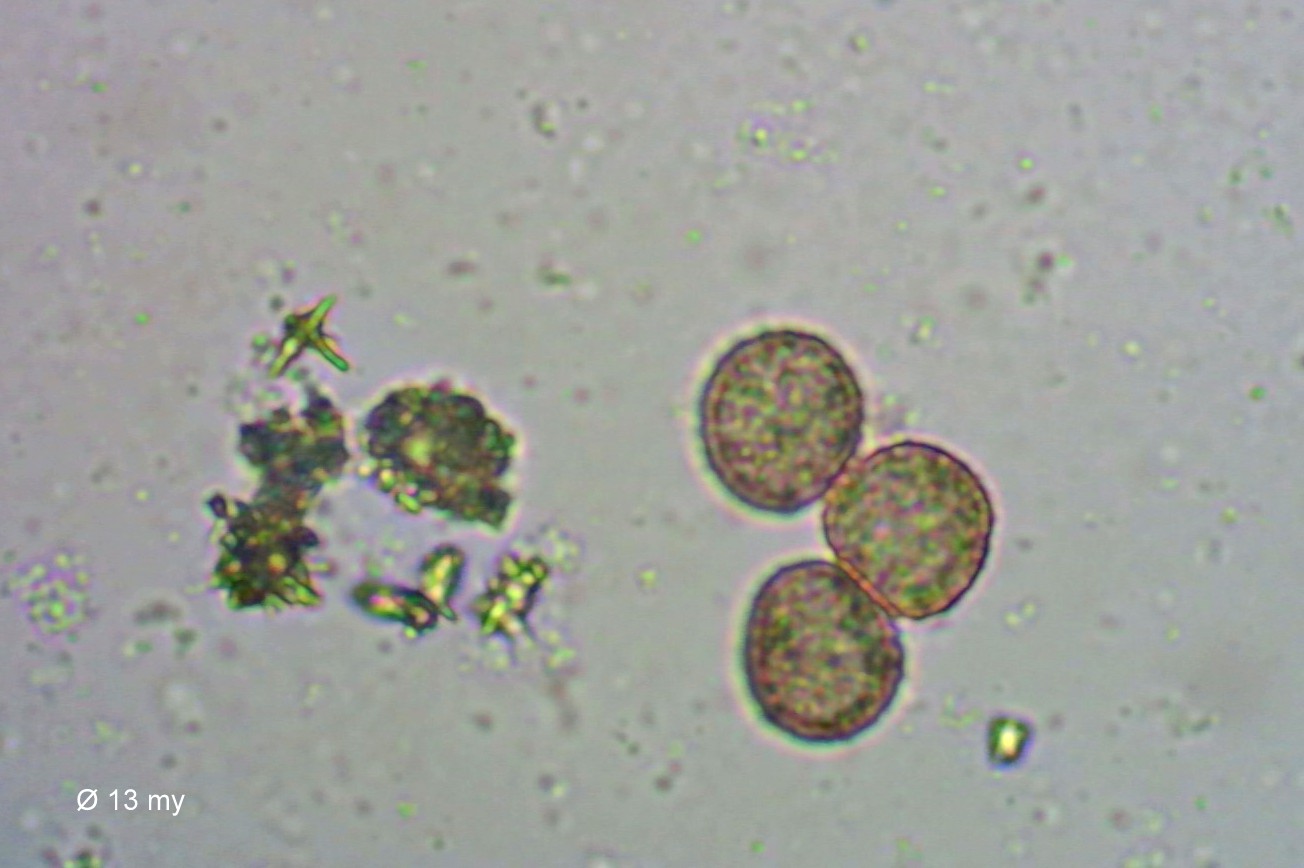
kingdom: Protozoa
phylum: Mycetozoa
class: Myxomycetes
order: Physarales
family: Physaraceae
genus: Didymium
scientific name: Didymium
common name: urteskum
